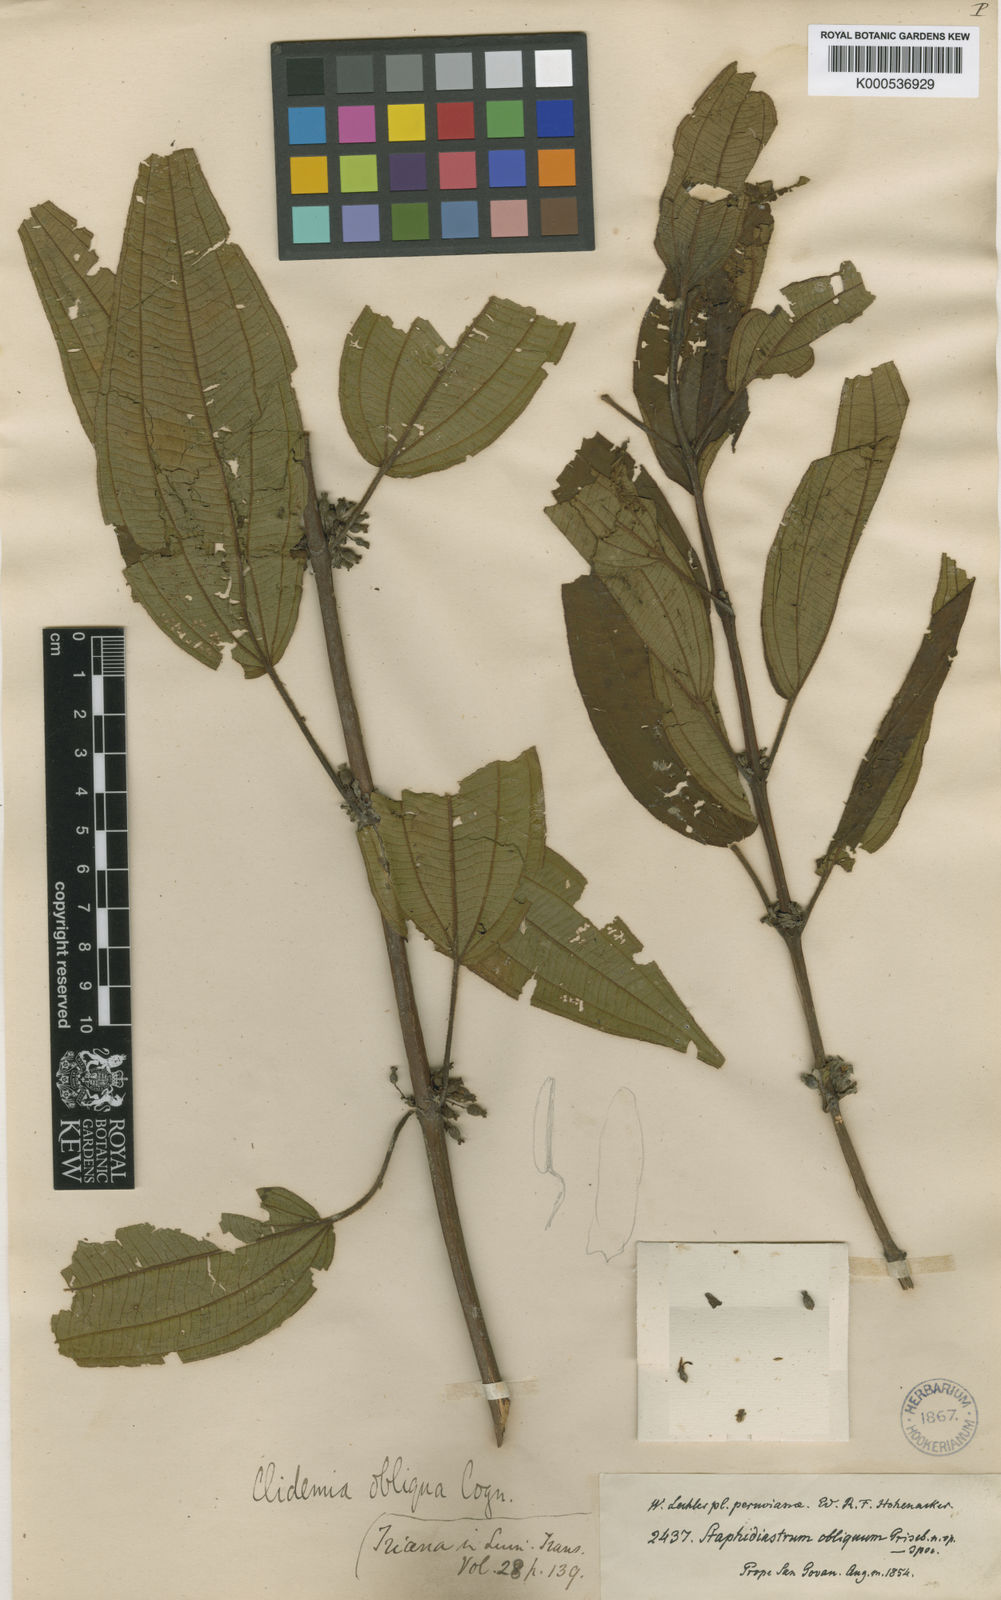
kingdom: Plantae
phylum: Tracheophyta
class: Magnoliopsida
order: Myrtales
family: Melastomataceae
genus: Miconia
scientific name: Miconia alaticaulis
